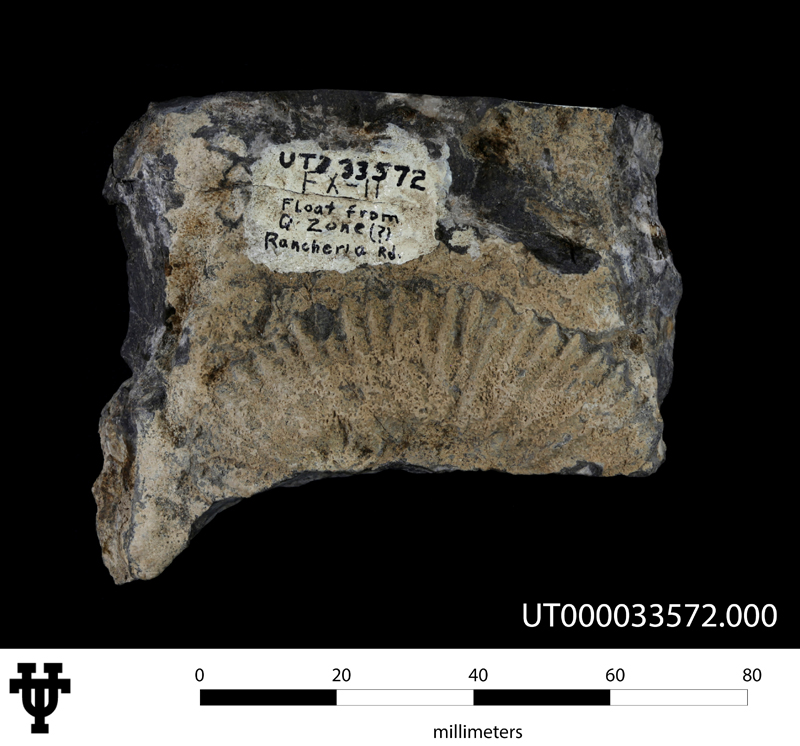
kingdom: Animalia
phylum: Mollusca
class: Cephalopoda
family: Deshayesitidae
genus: Acanthohoplites
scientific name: Acanthohoplites
